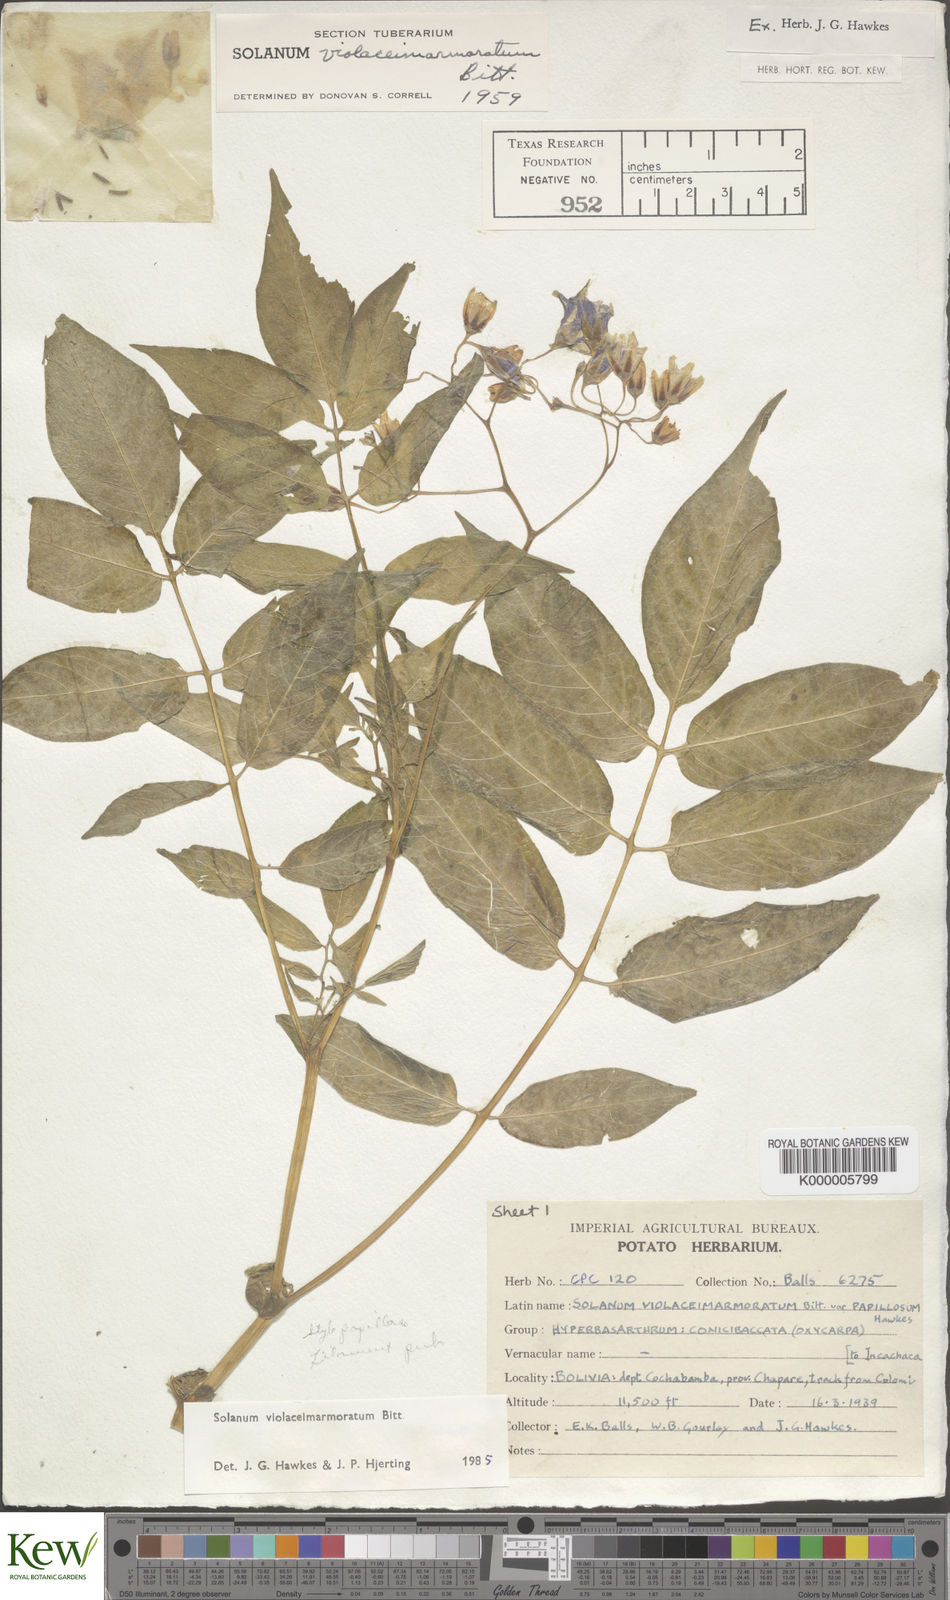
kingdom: Plantae
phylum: Tracheophyta
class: Magnoliopsida
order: Solanales
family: Solanaceae
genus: Solanum
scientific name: Solanum violaceimarmoratum
